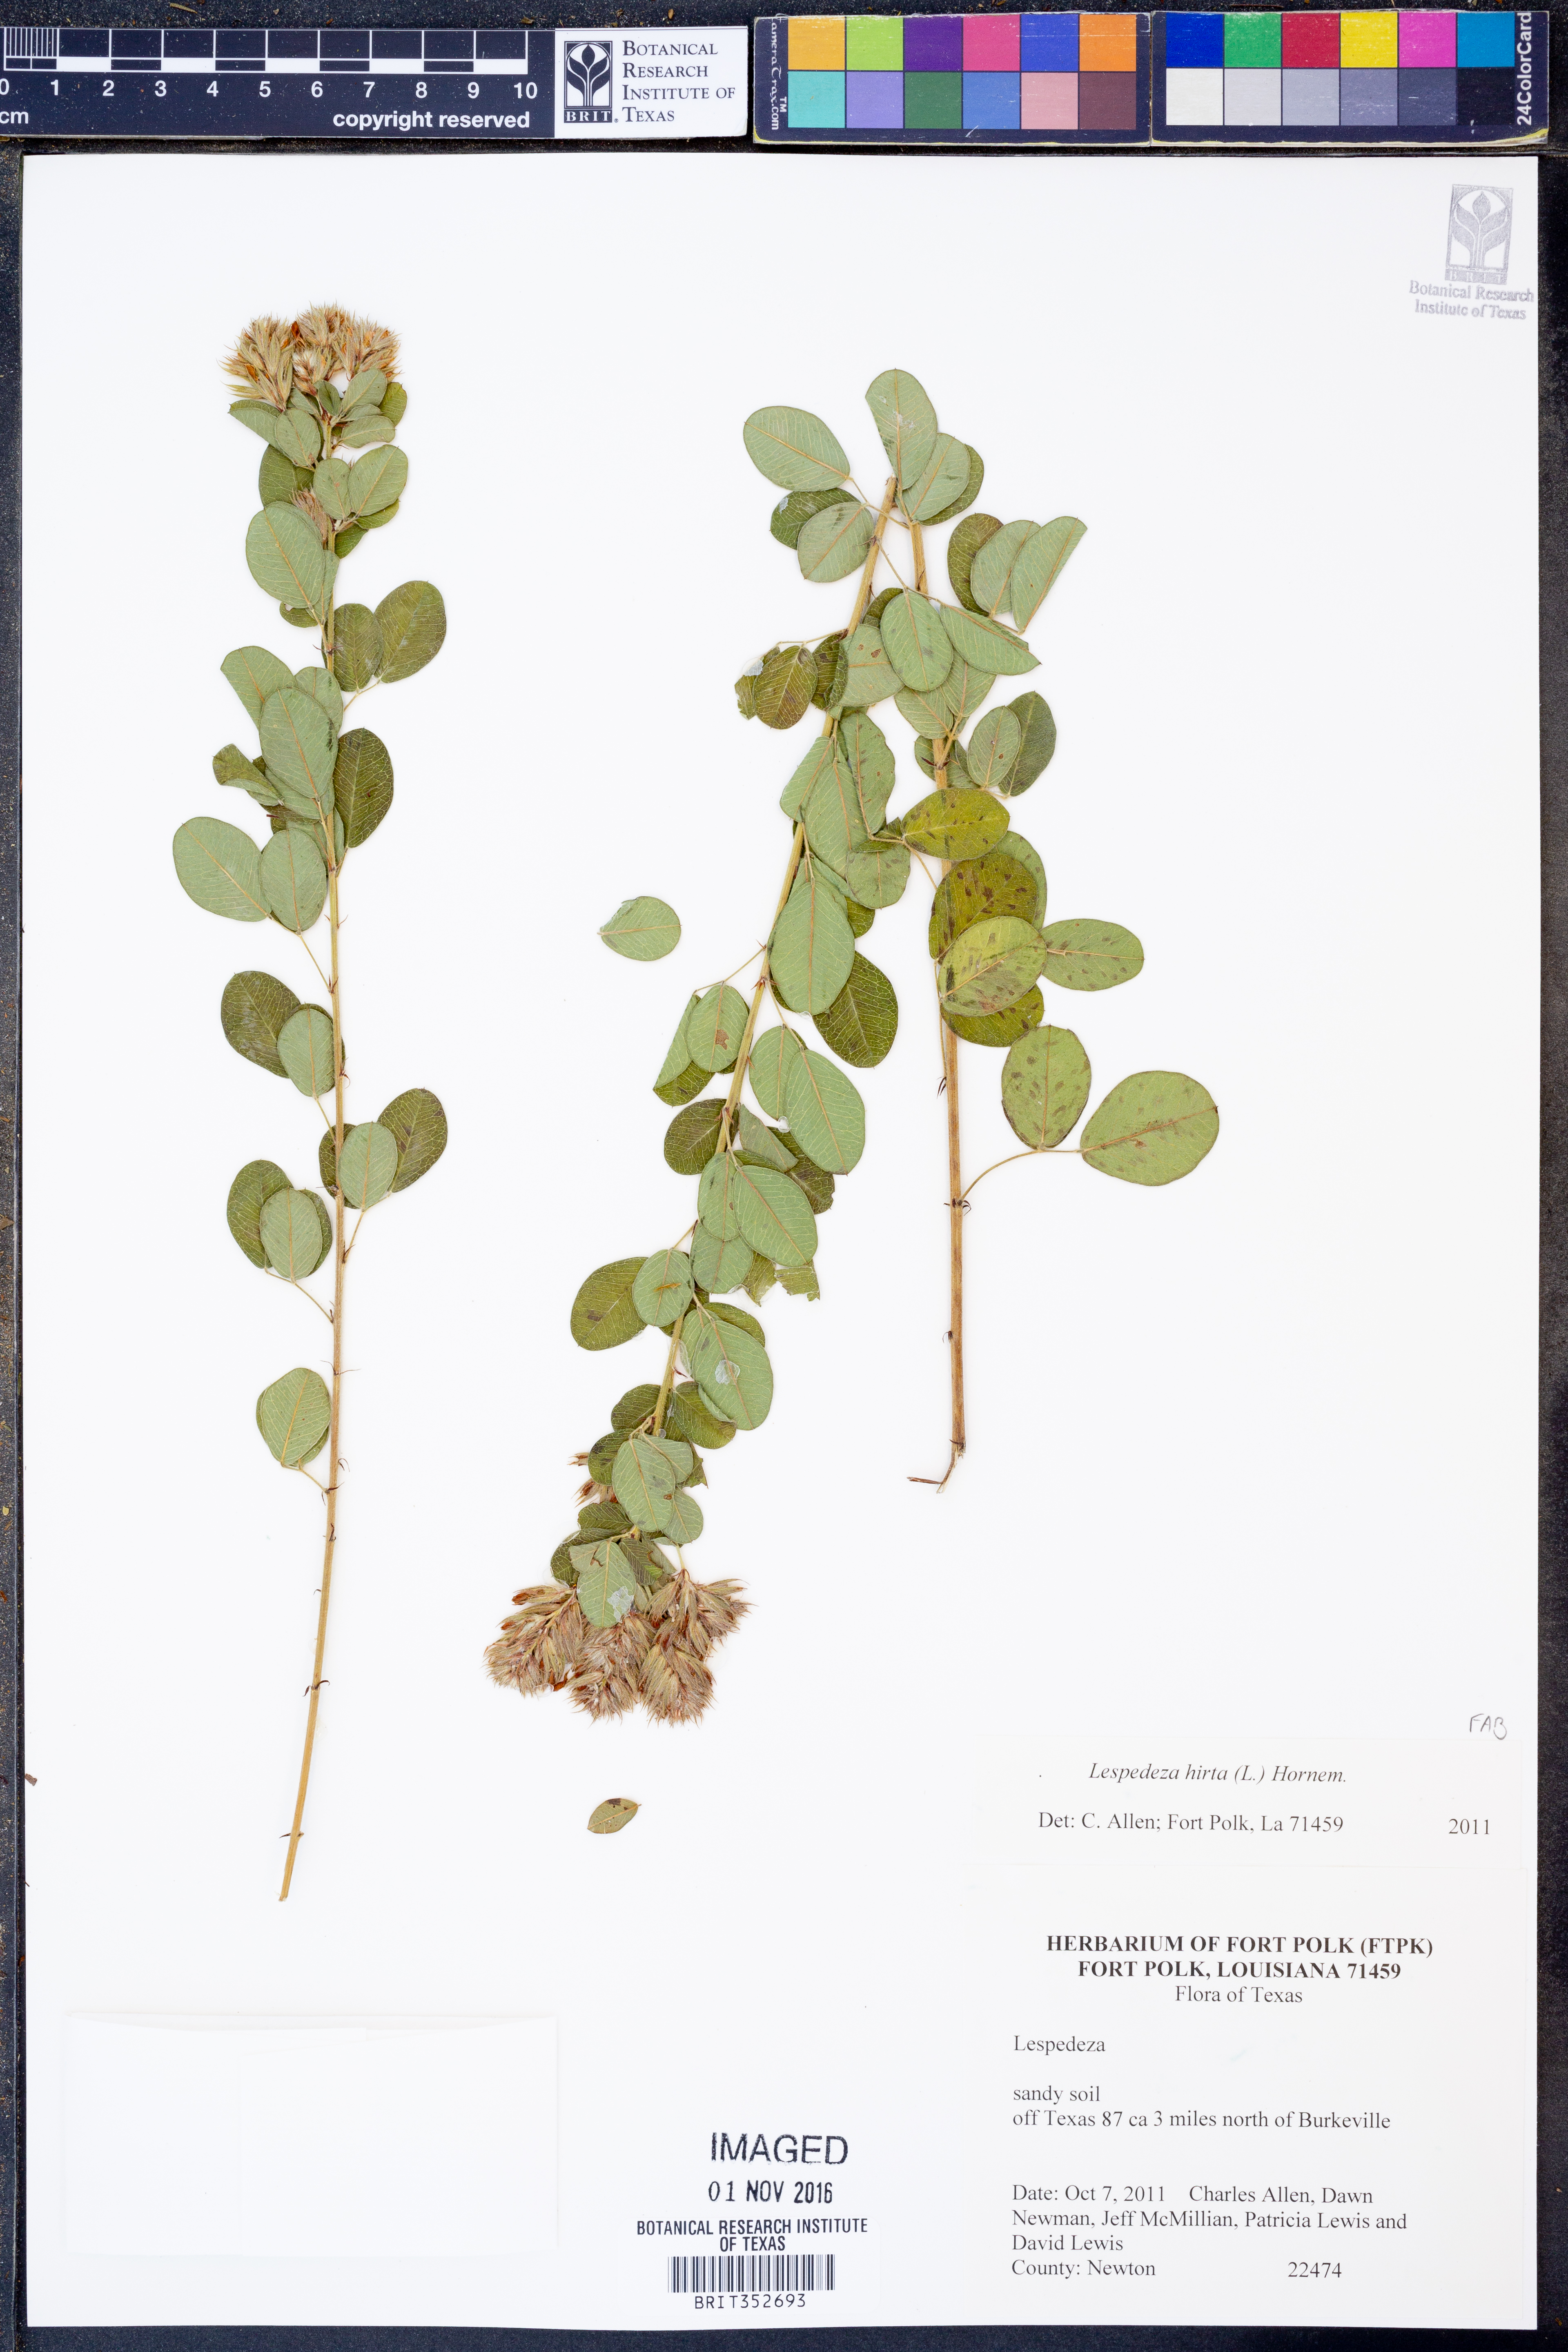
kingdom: Plantae
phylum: Tracheophyta
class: Magnoliopsida
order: Fabales
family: Fabaceae
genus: Lespedeza
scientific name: Lespedeza hirta
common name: Hairy lespedeza
